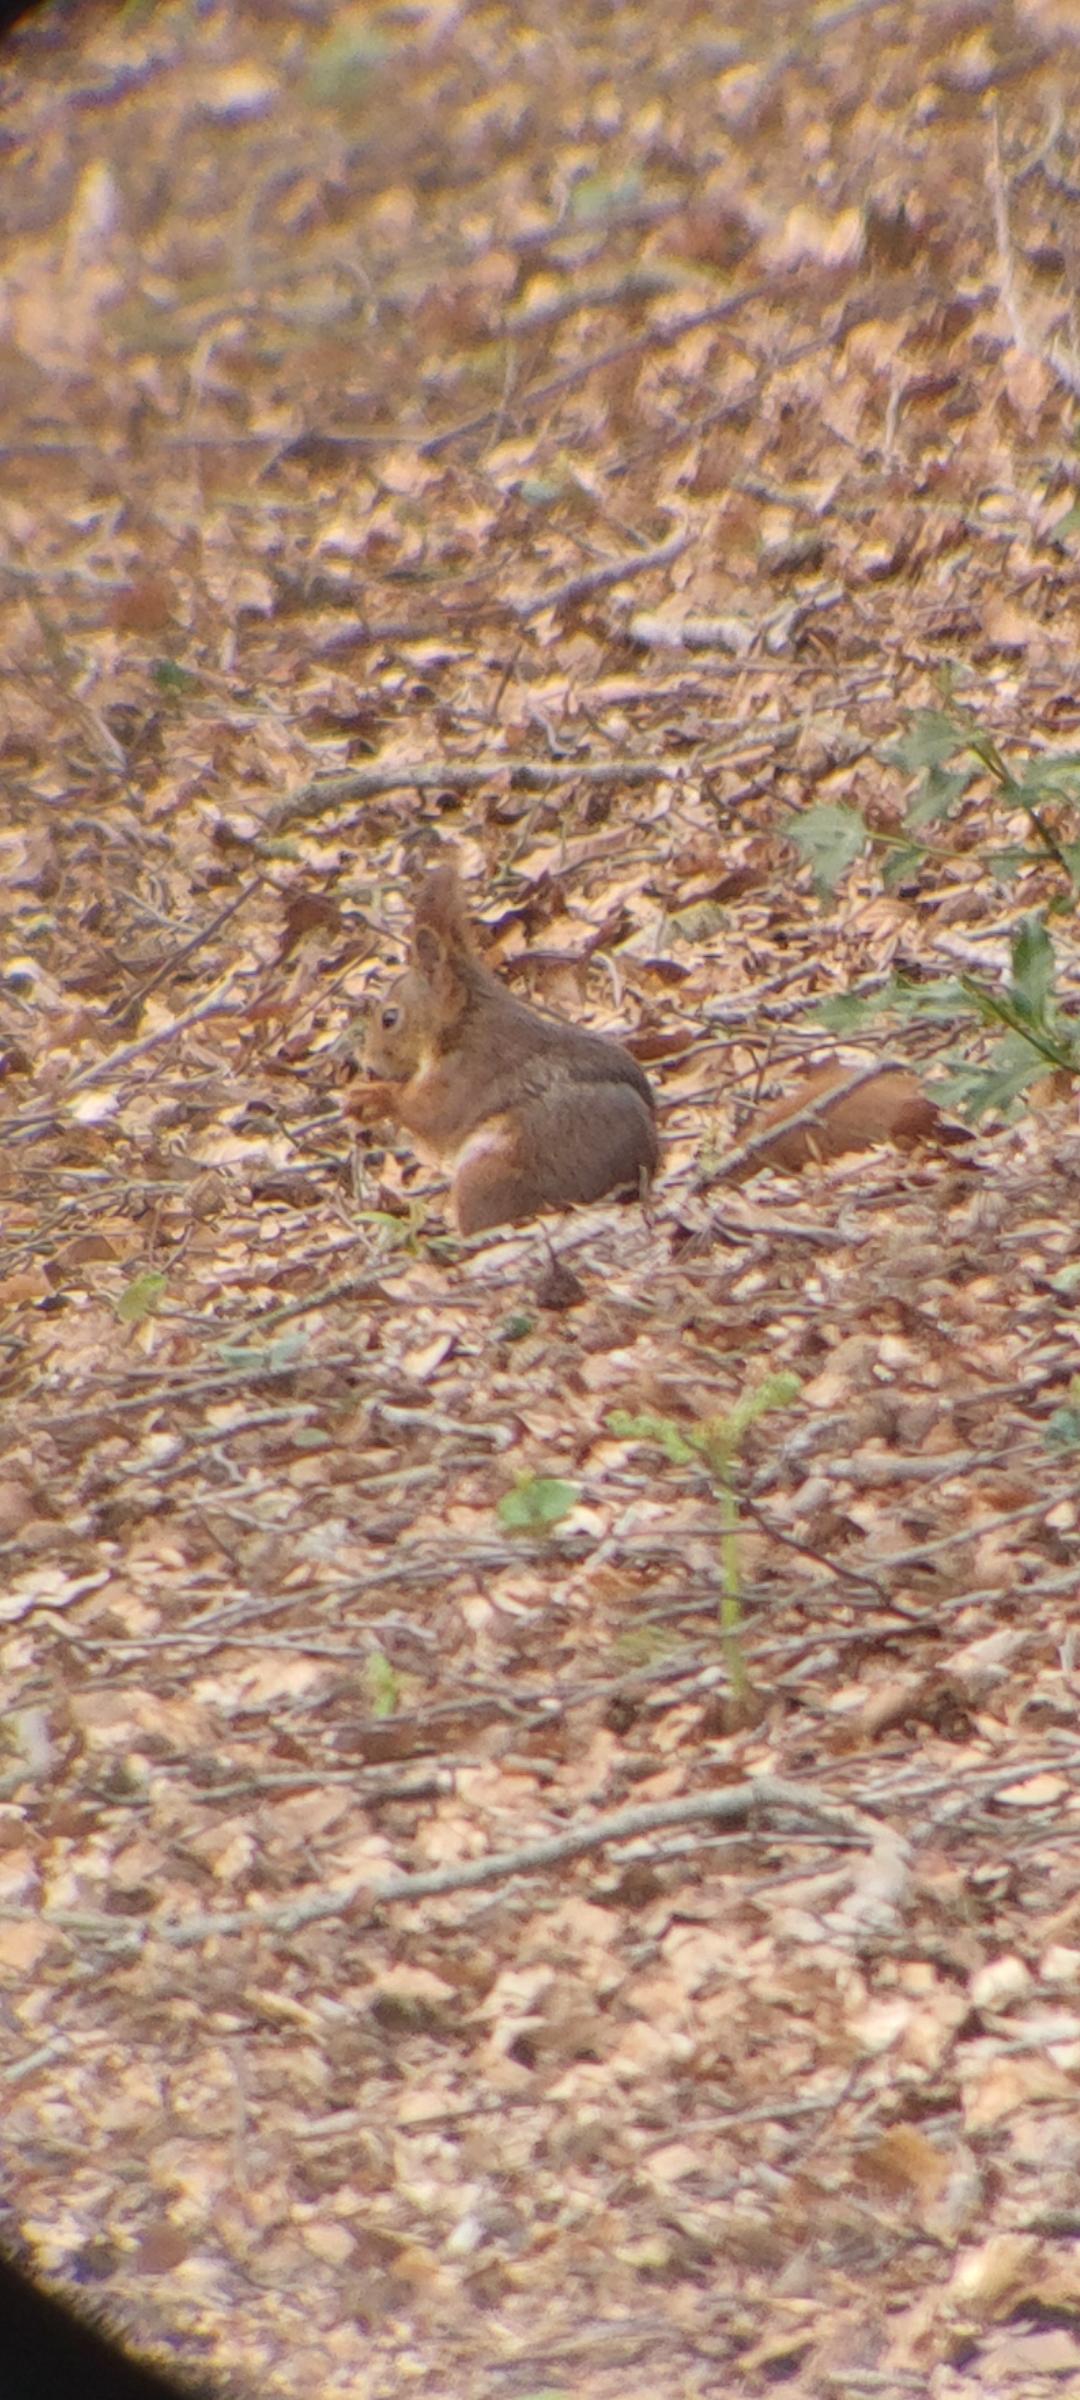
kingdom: Animalia
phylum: Chordata
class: Mammalia
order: Rodentia
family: Sciuridae
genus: Sciurus
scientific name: Sciurus vulgaris
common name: Egern
